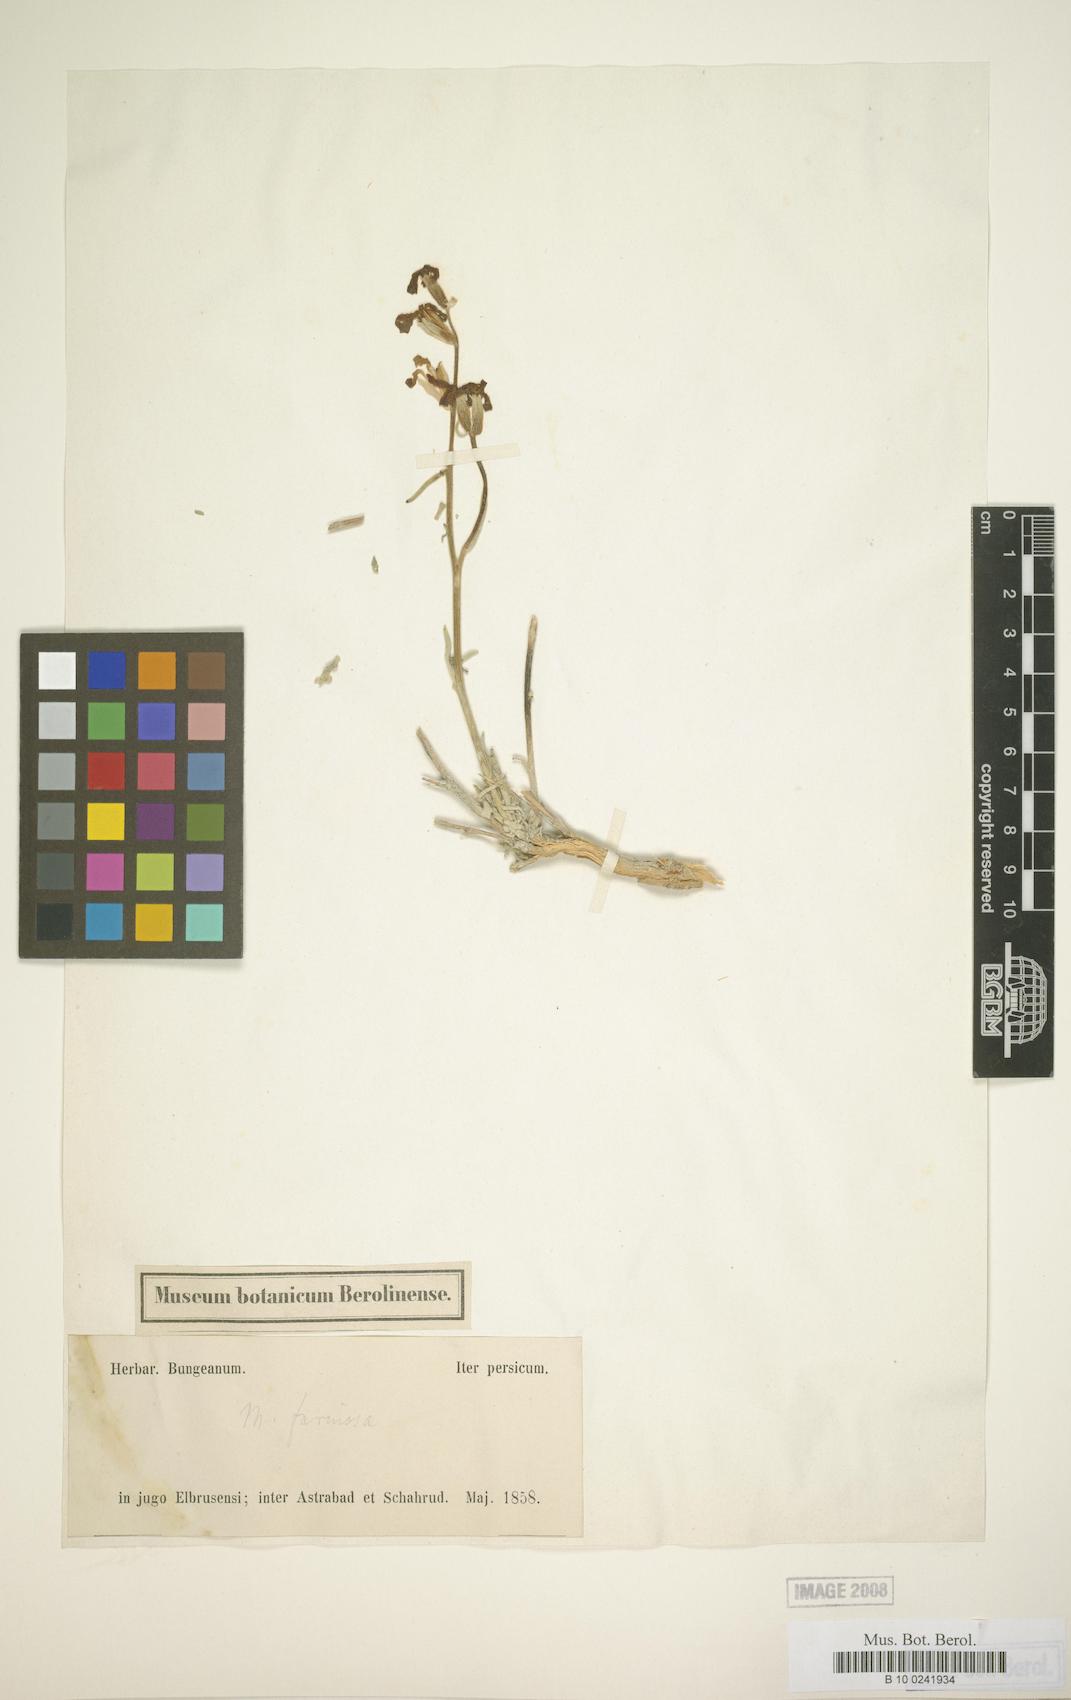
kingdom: Plantae
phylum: Tracheophyta
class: Magnoliopsida
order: Brassicales
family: Brassicaceae
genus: Matthiola
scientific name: Matthiola farinosa
